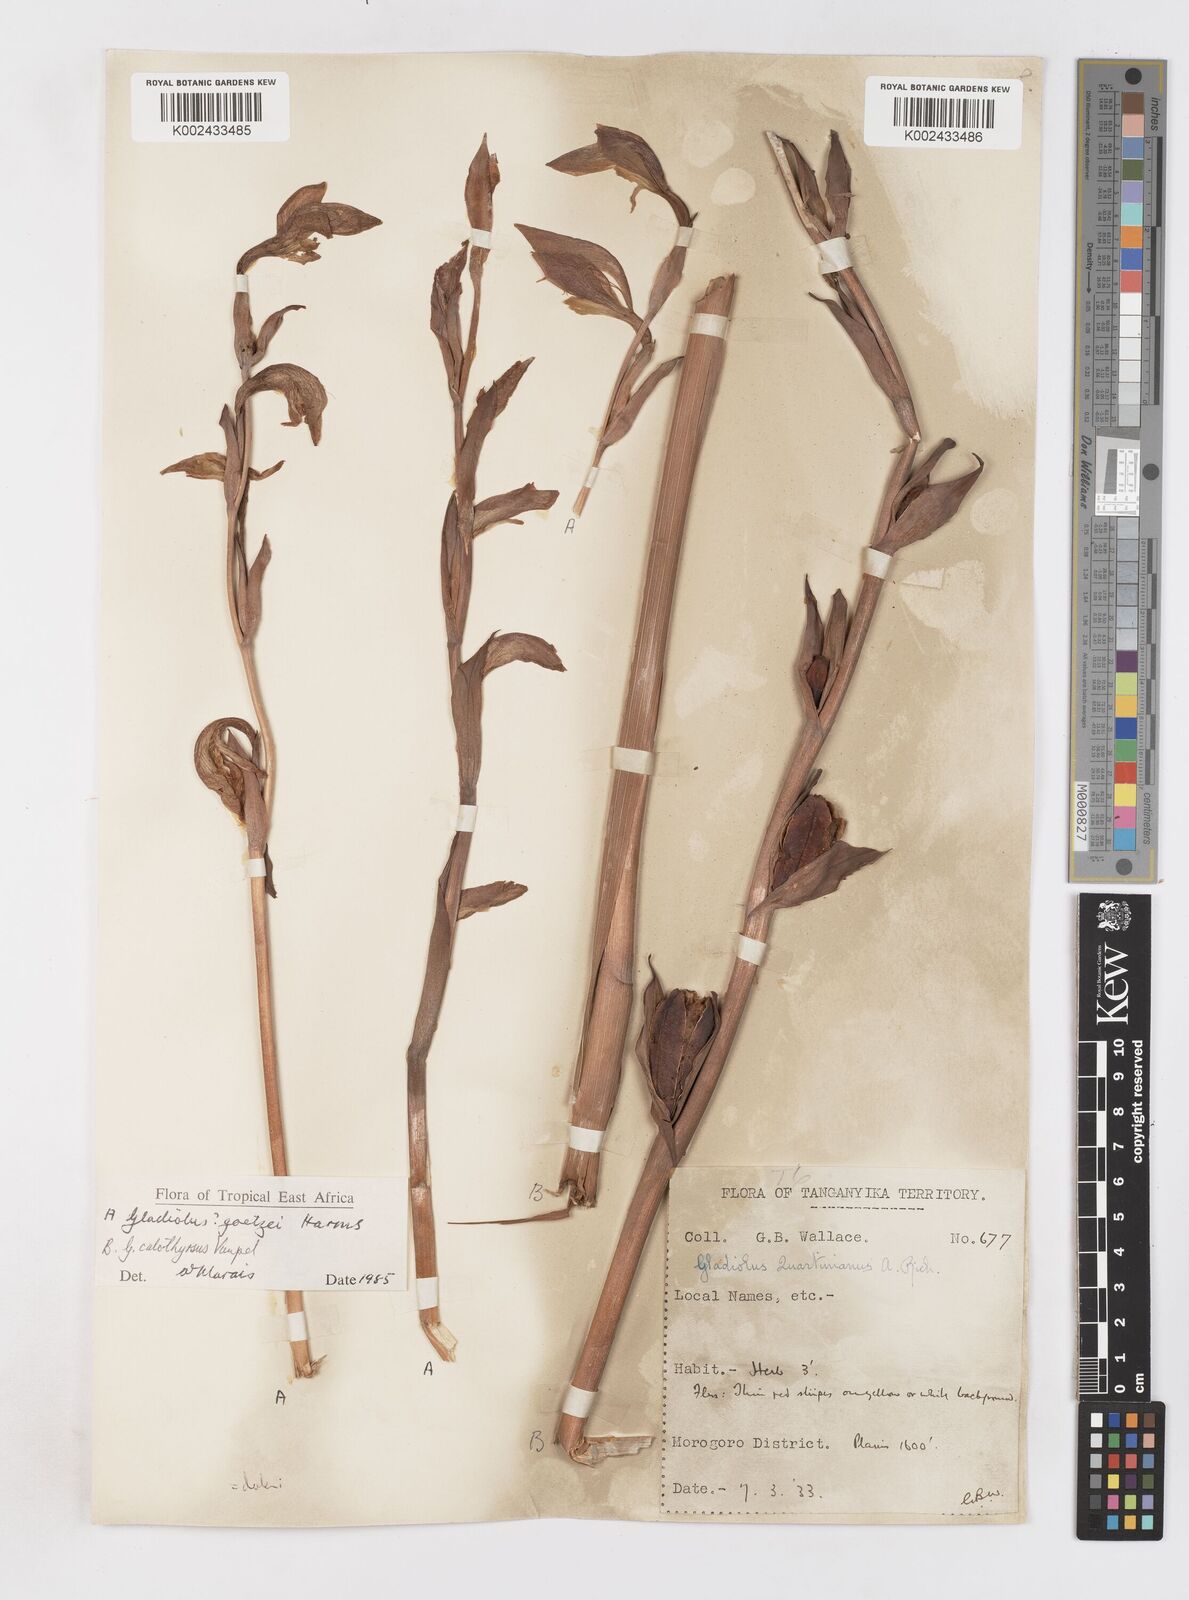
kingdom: Plantae
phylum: Tracheophyta
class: Liliopsida
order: Asparagales
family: Iridaceae
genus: Gladiolus
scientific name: Gladiolus dalenii
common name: Cornflag
